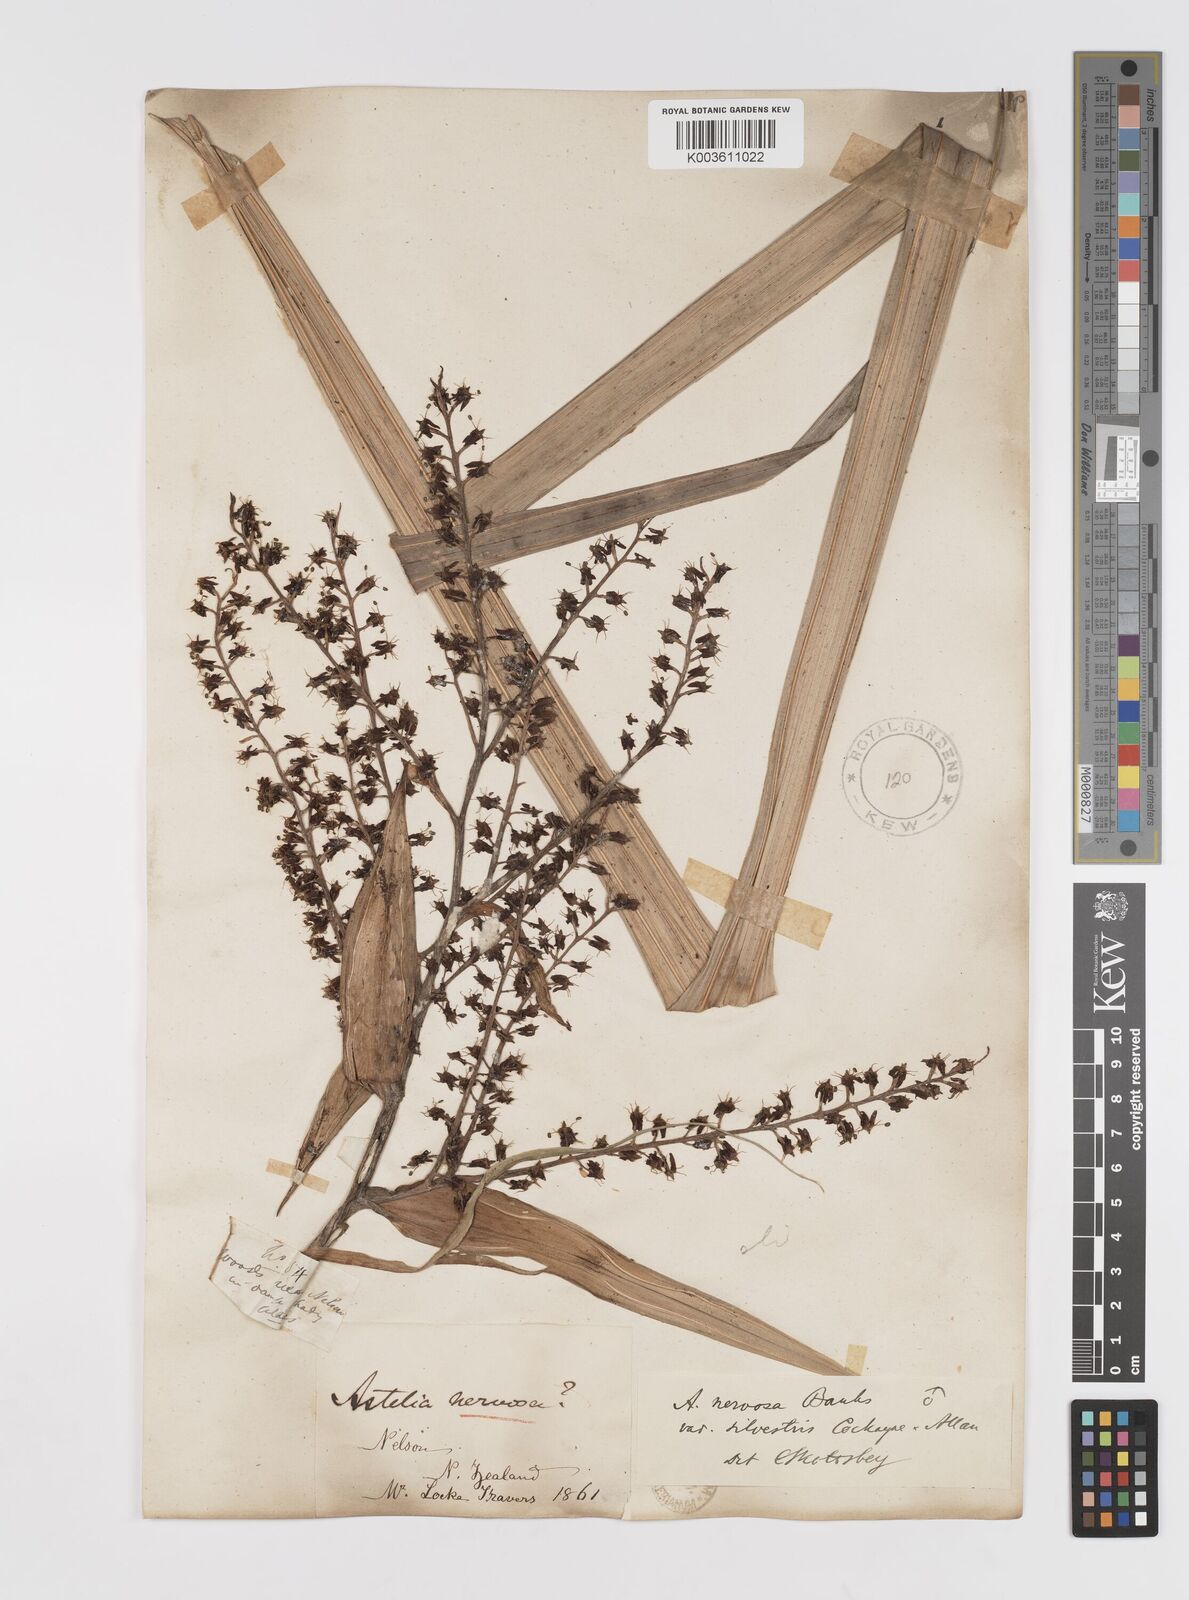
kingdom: Plantae
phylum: Tracheophyta
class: Liliopsida
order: Asparagales
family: Asteliaceae
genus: Astelia
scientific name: Astelia nervosa
